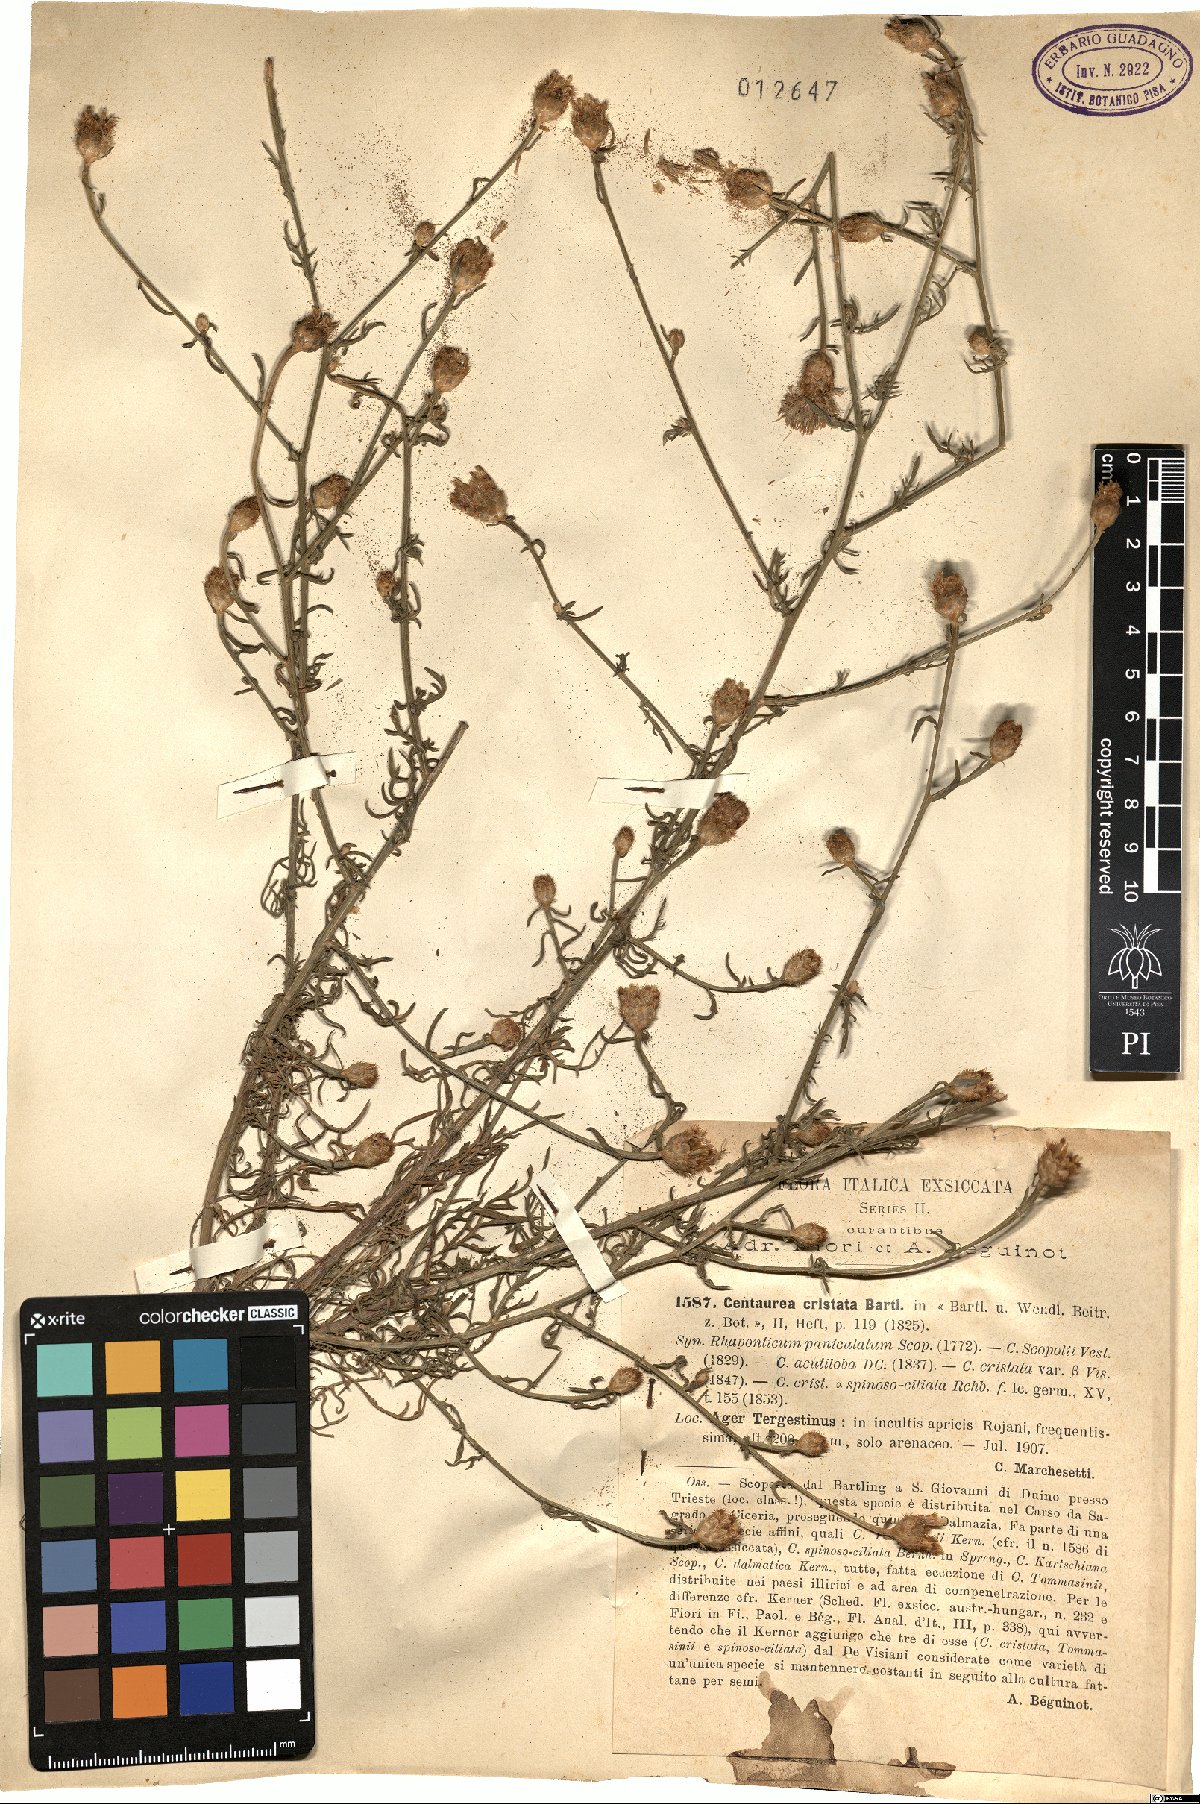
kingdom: Plantae
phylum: Tracheophyta
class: Magnoliopsida
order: Asterales
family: Asteraceae
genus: Centaurea
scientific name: Centaurea cristata
